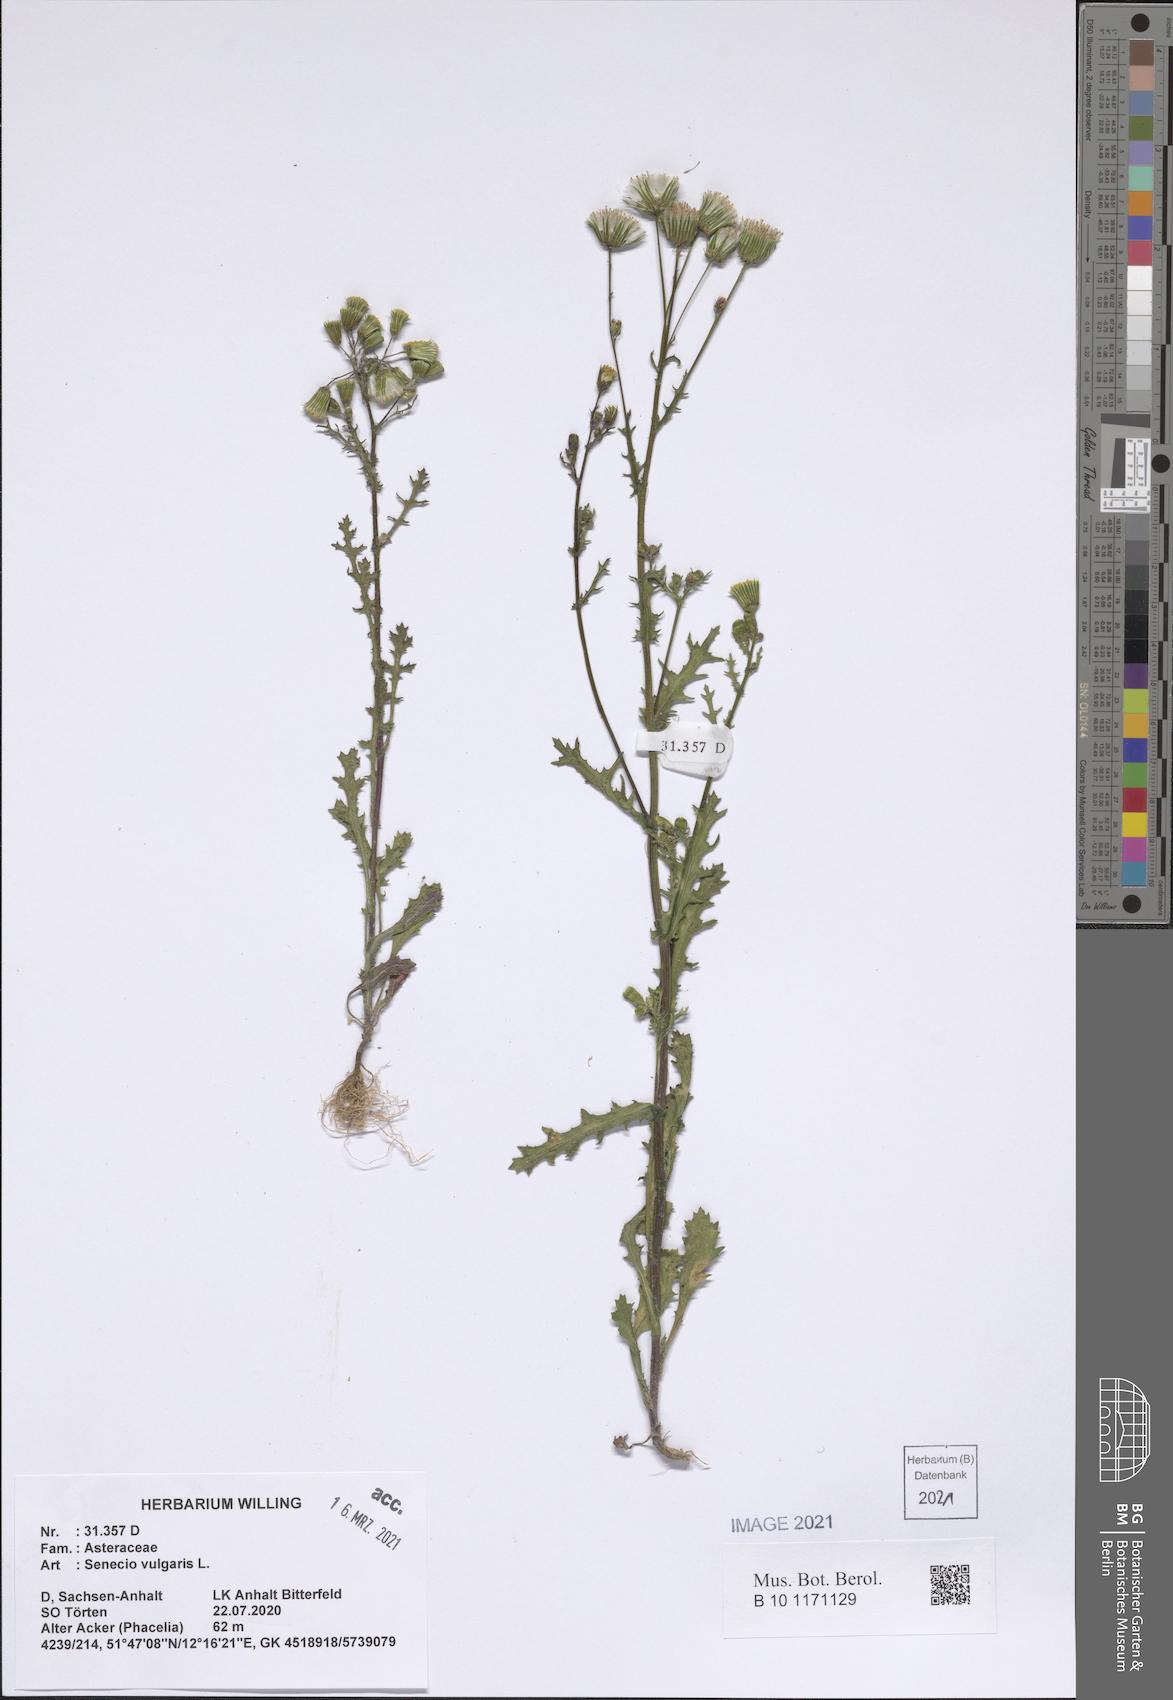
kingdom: Plantae
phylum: Tracheophyta
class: Magnoliopsida
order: Asterales
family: Asteraceae
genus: Senecio
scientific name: Senecio vulgaris
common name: Old-man-in-the-spring
